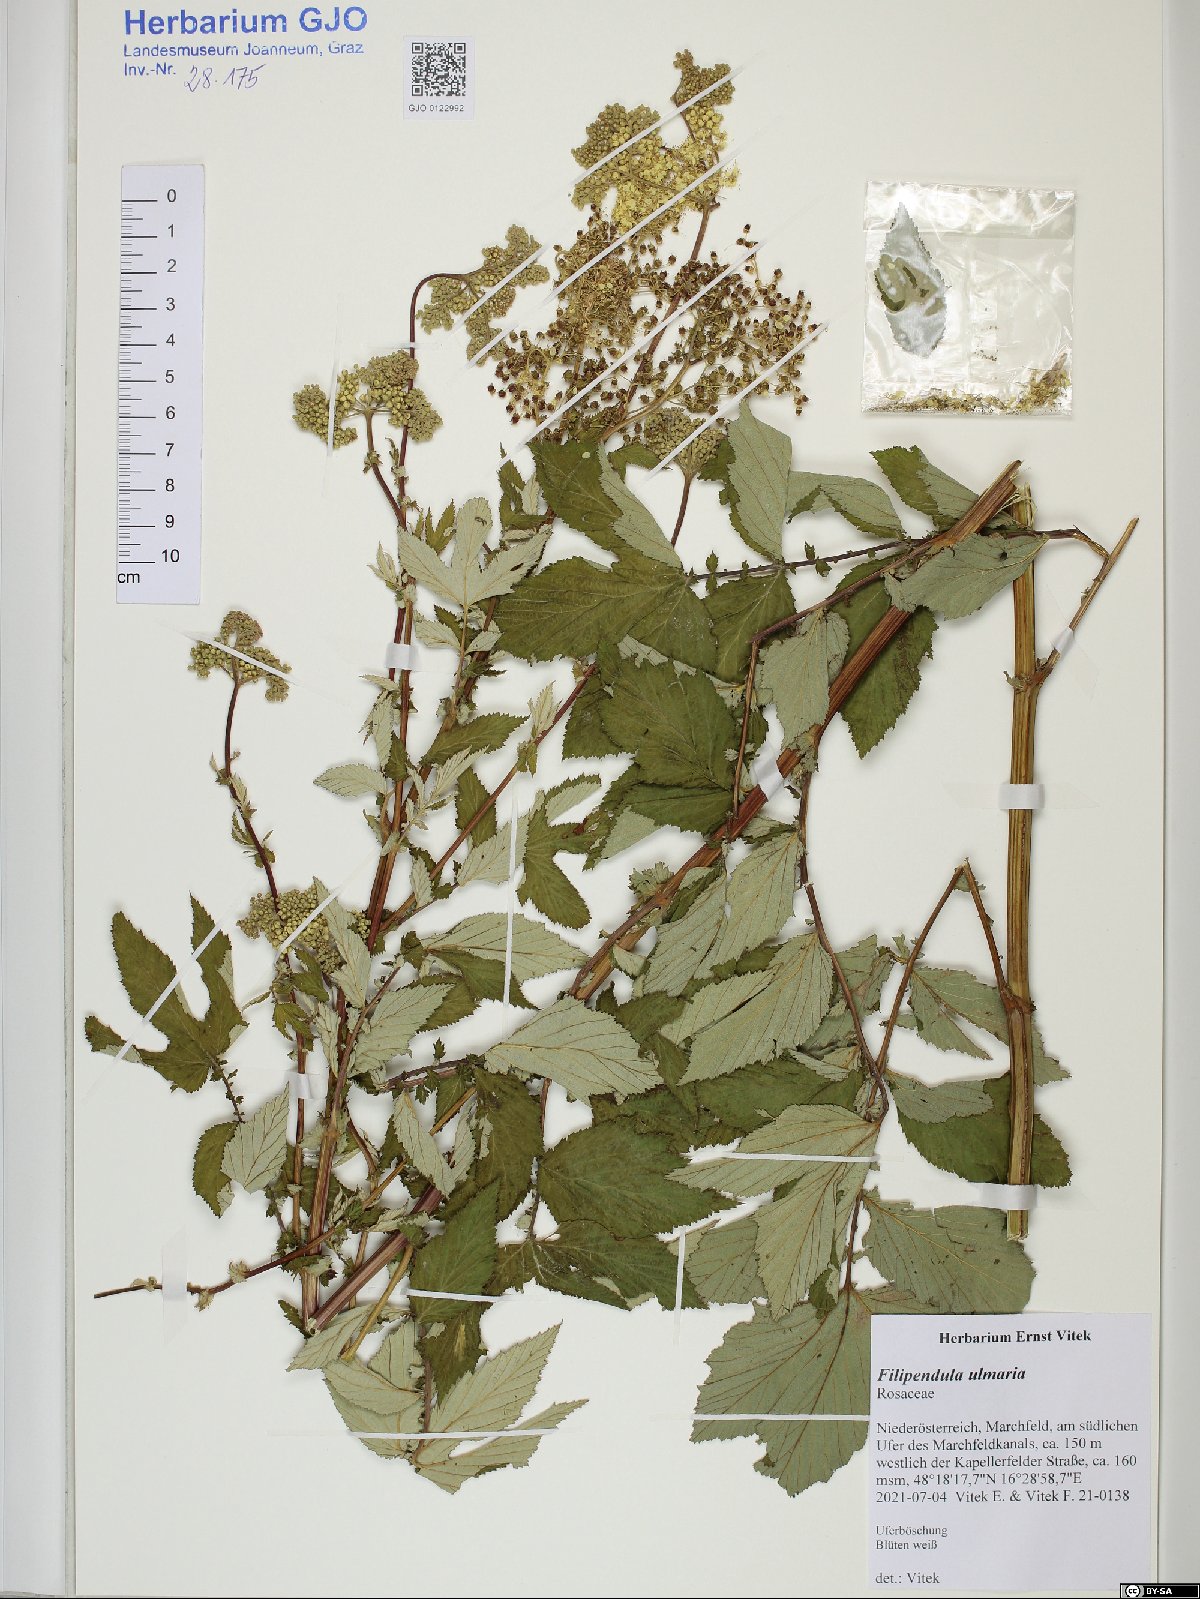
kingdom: Plantae
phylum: Tracheophyta
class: Magnoliopsida
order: Rosales
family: Rosaceae
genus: Filipendula
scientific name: Filipendula ulmaria
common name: Meadowsweet
